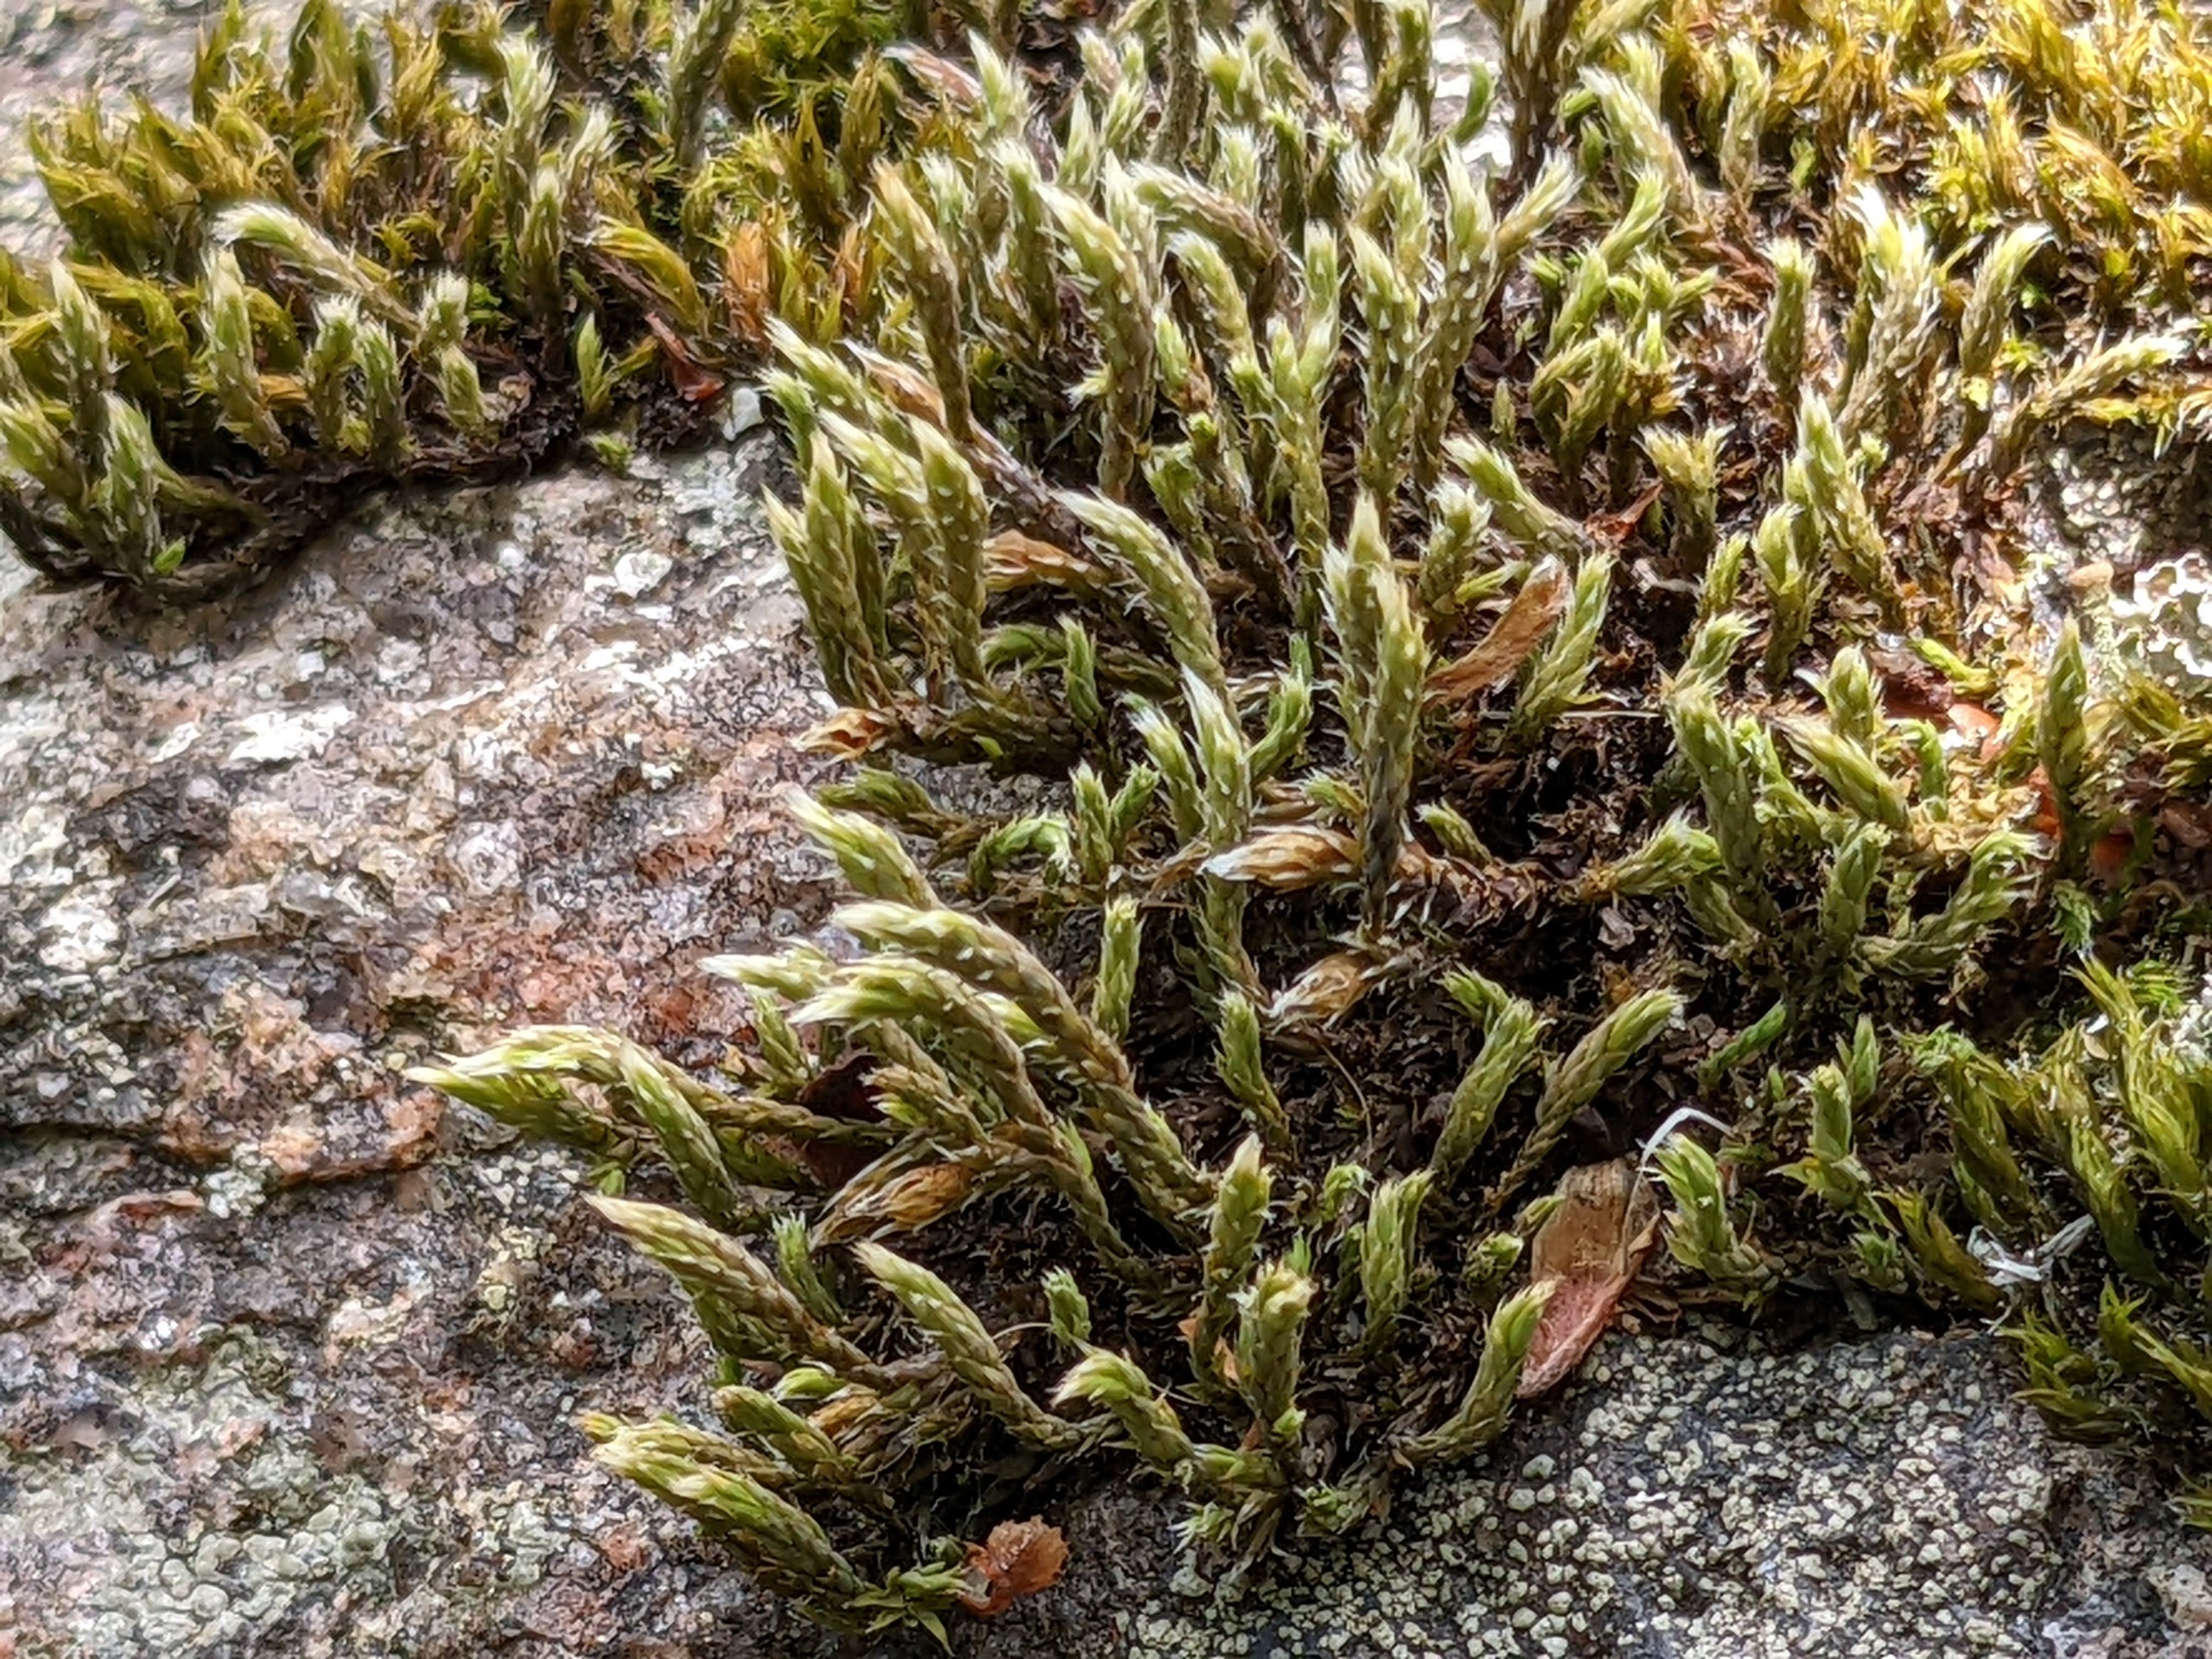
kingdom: Plantae
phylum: Bryophyta
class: Bryopsida
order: Hedwigiales
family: Hedwigiaceae
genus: Hedwigia
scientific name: Hedwigia ciliata
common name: Hvidspidset hedwigia
